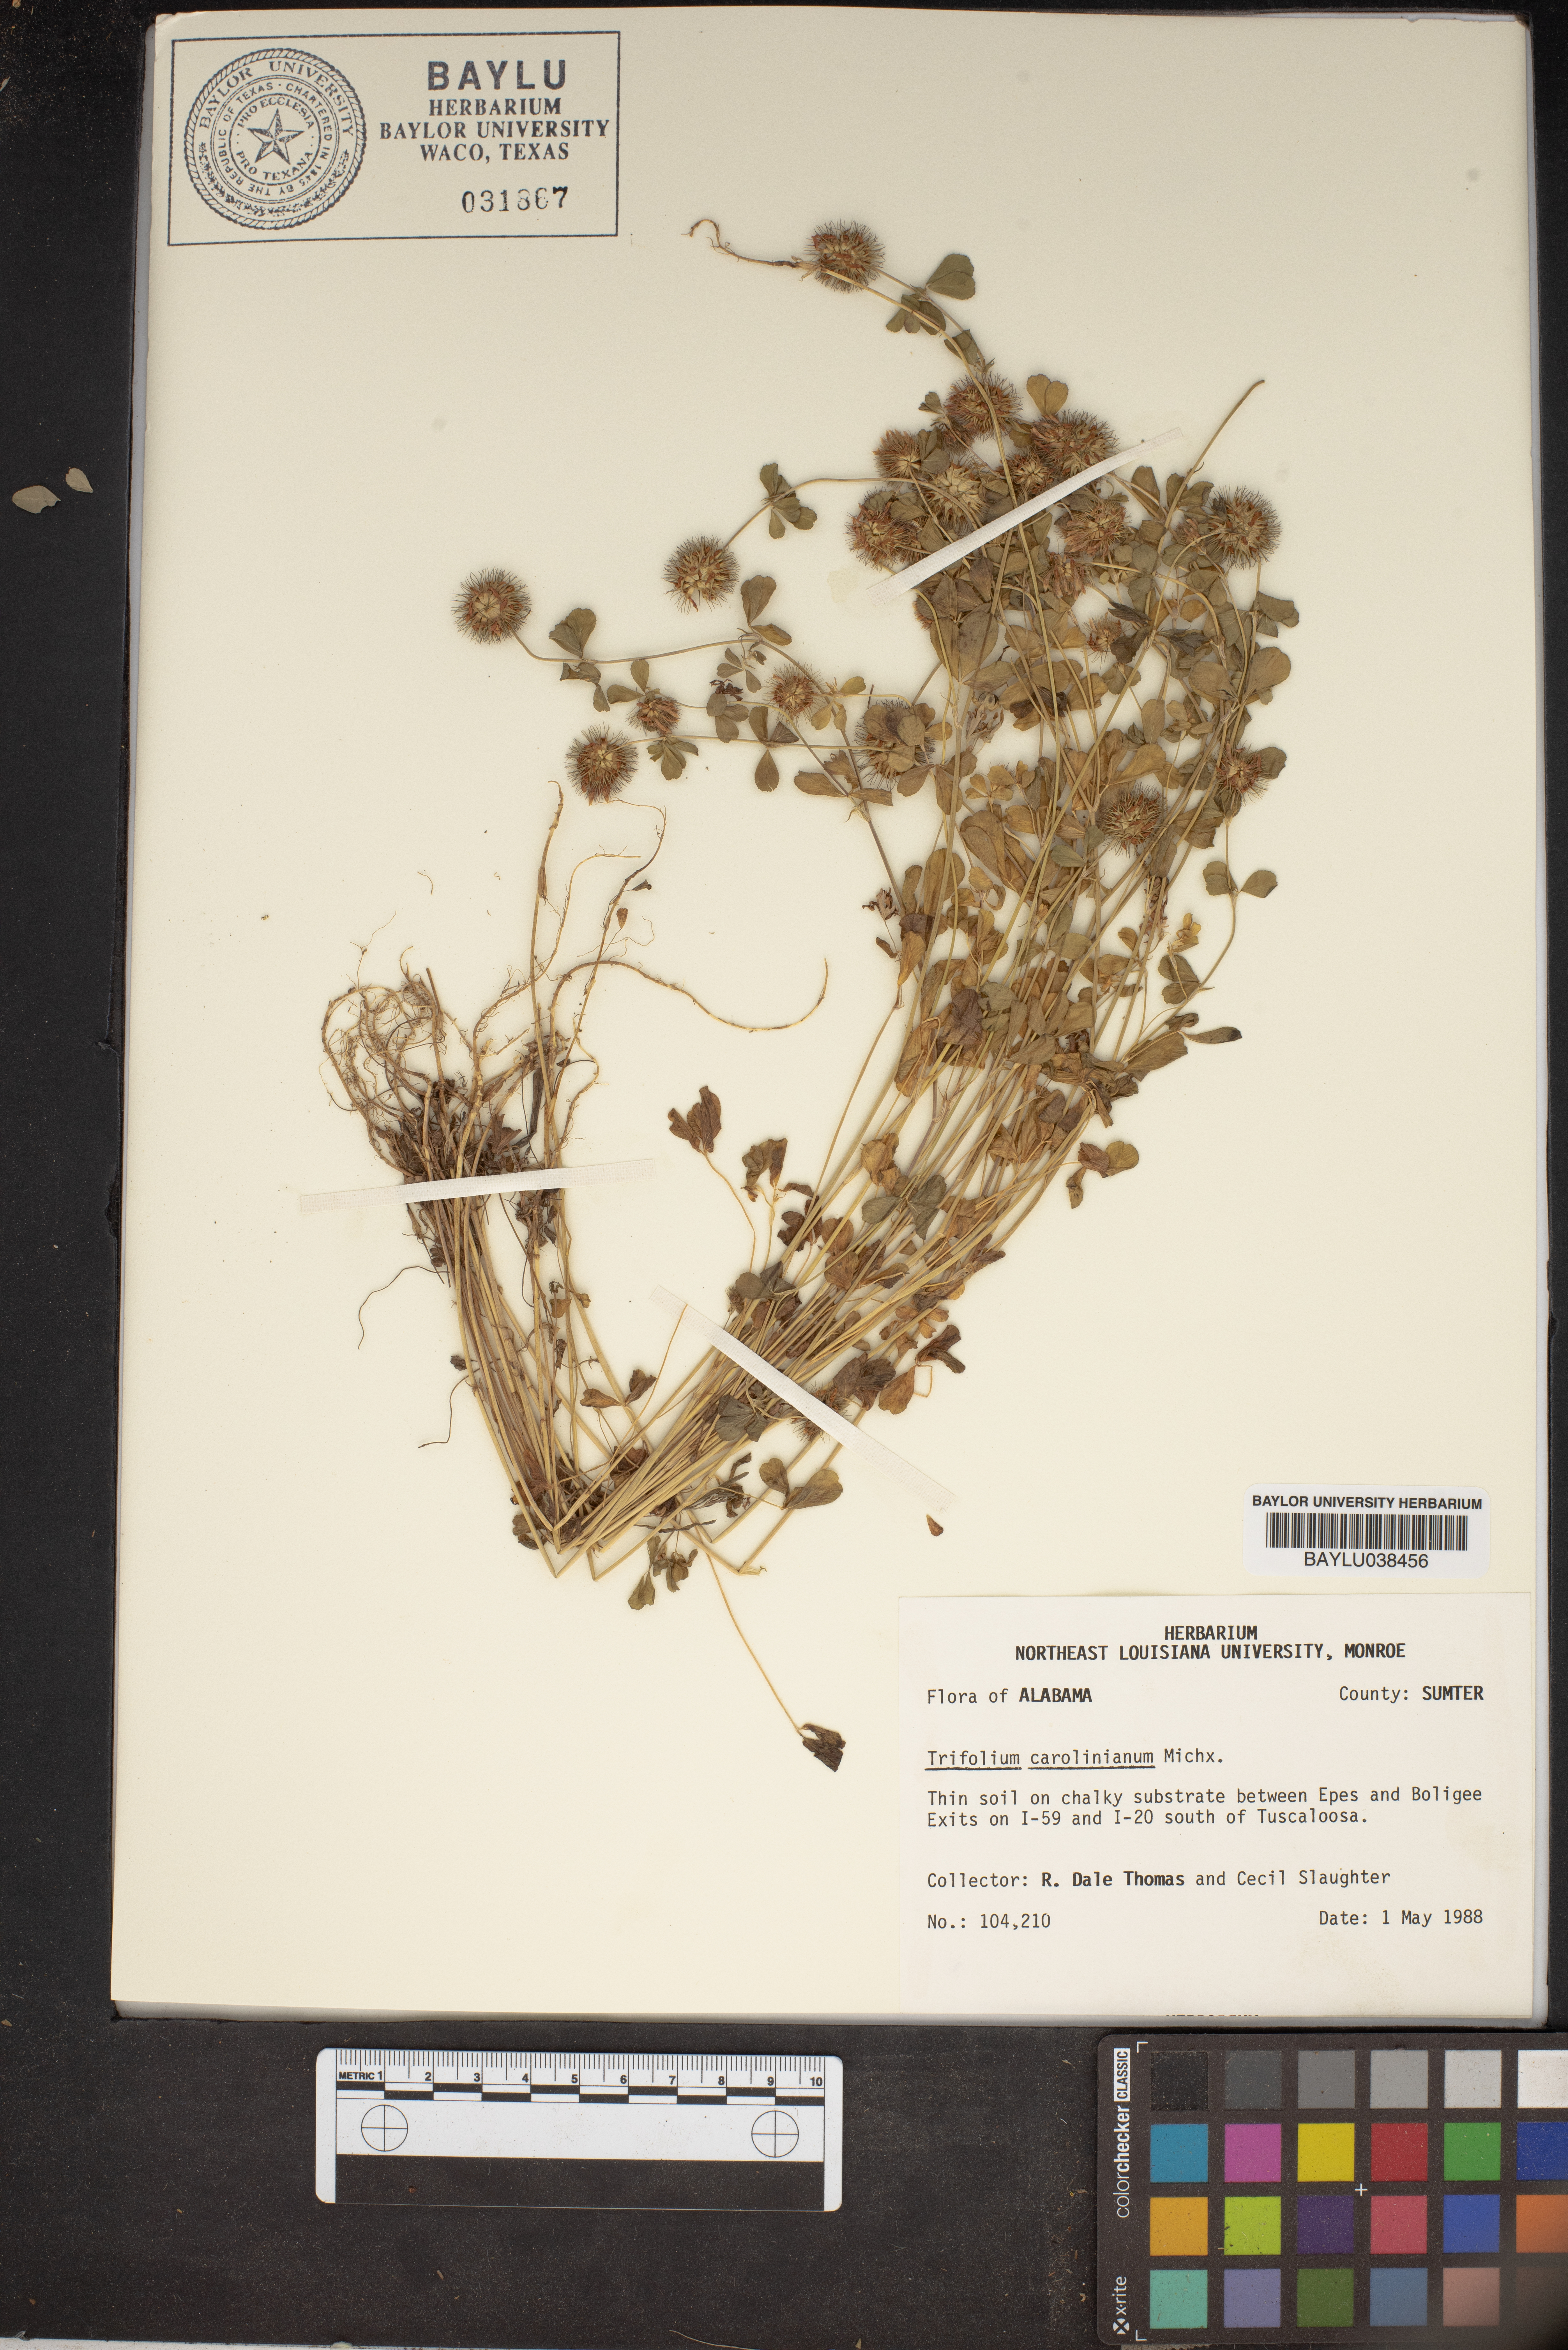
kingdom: Plantae
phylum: Tracheophyta
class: Magnoliopsida
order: Fabales
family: Fabaceae
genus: Trifolium
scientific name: Trifolium carolinianum
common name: Wild white clover
